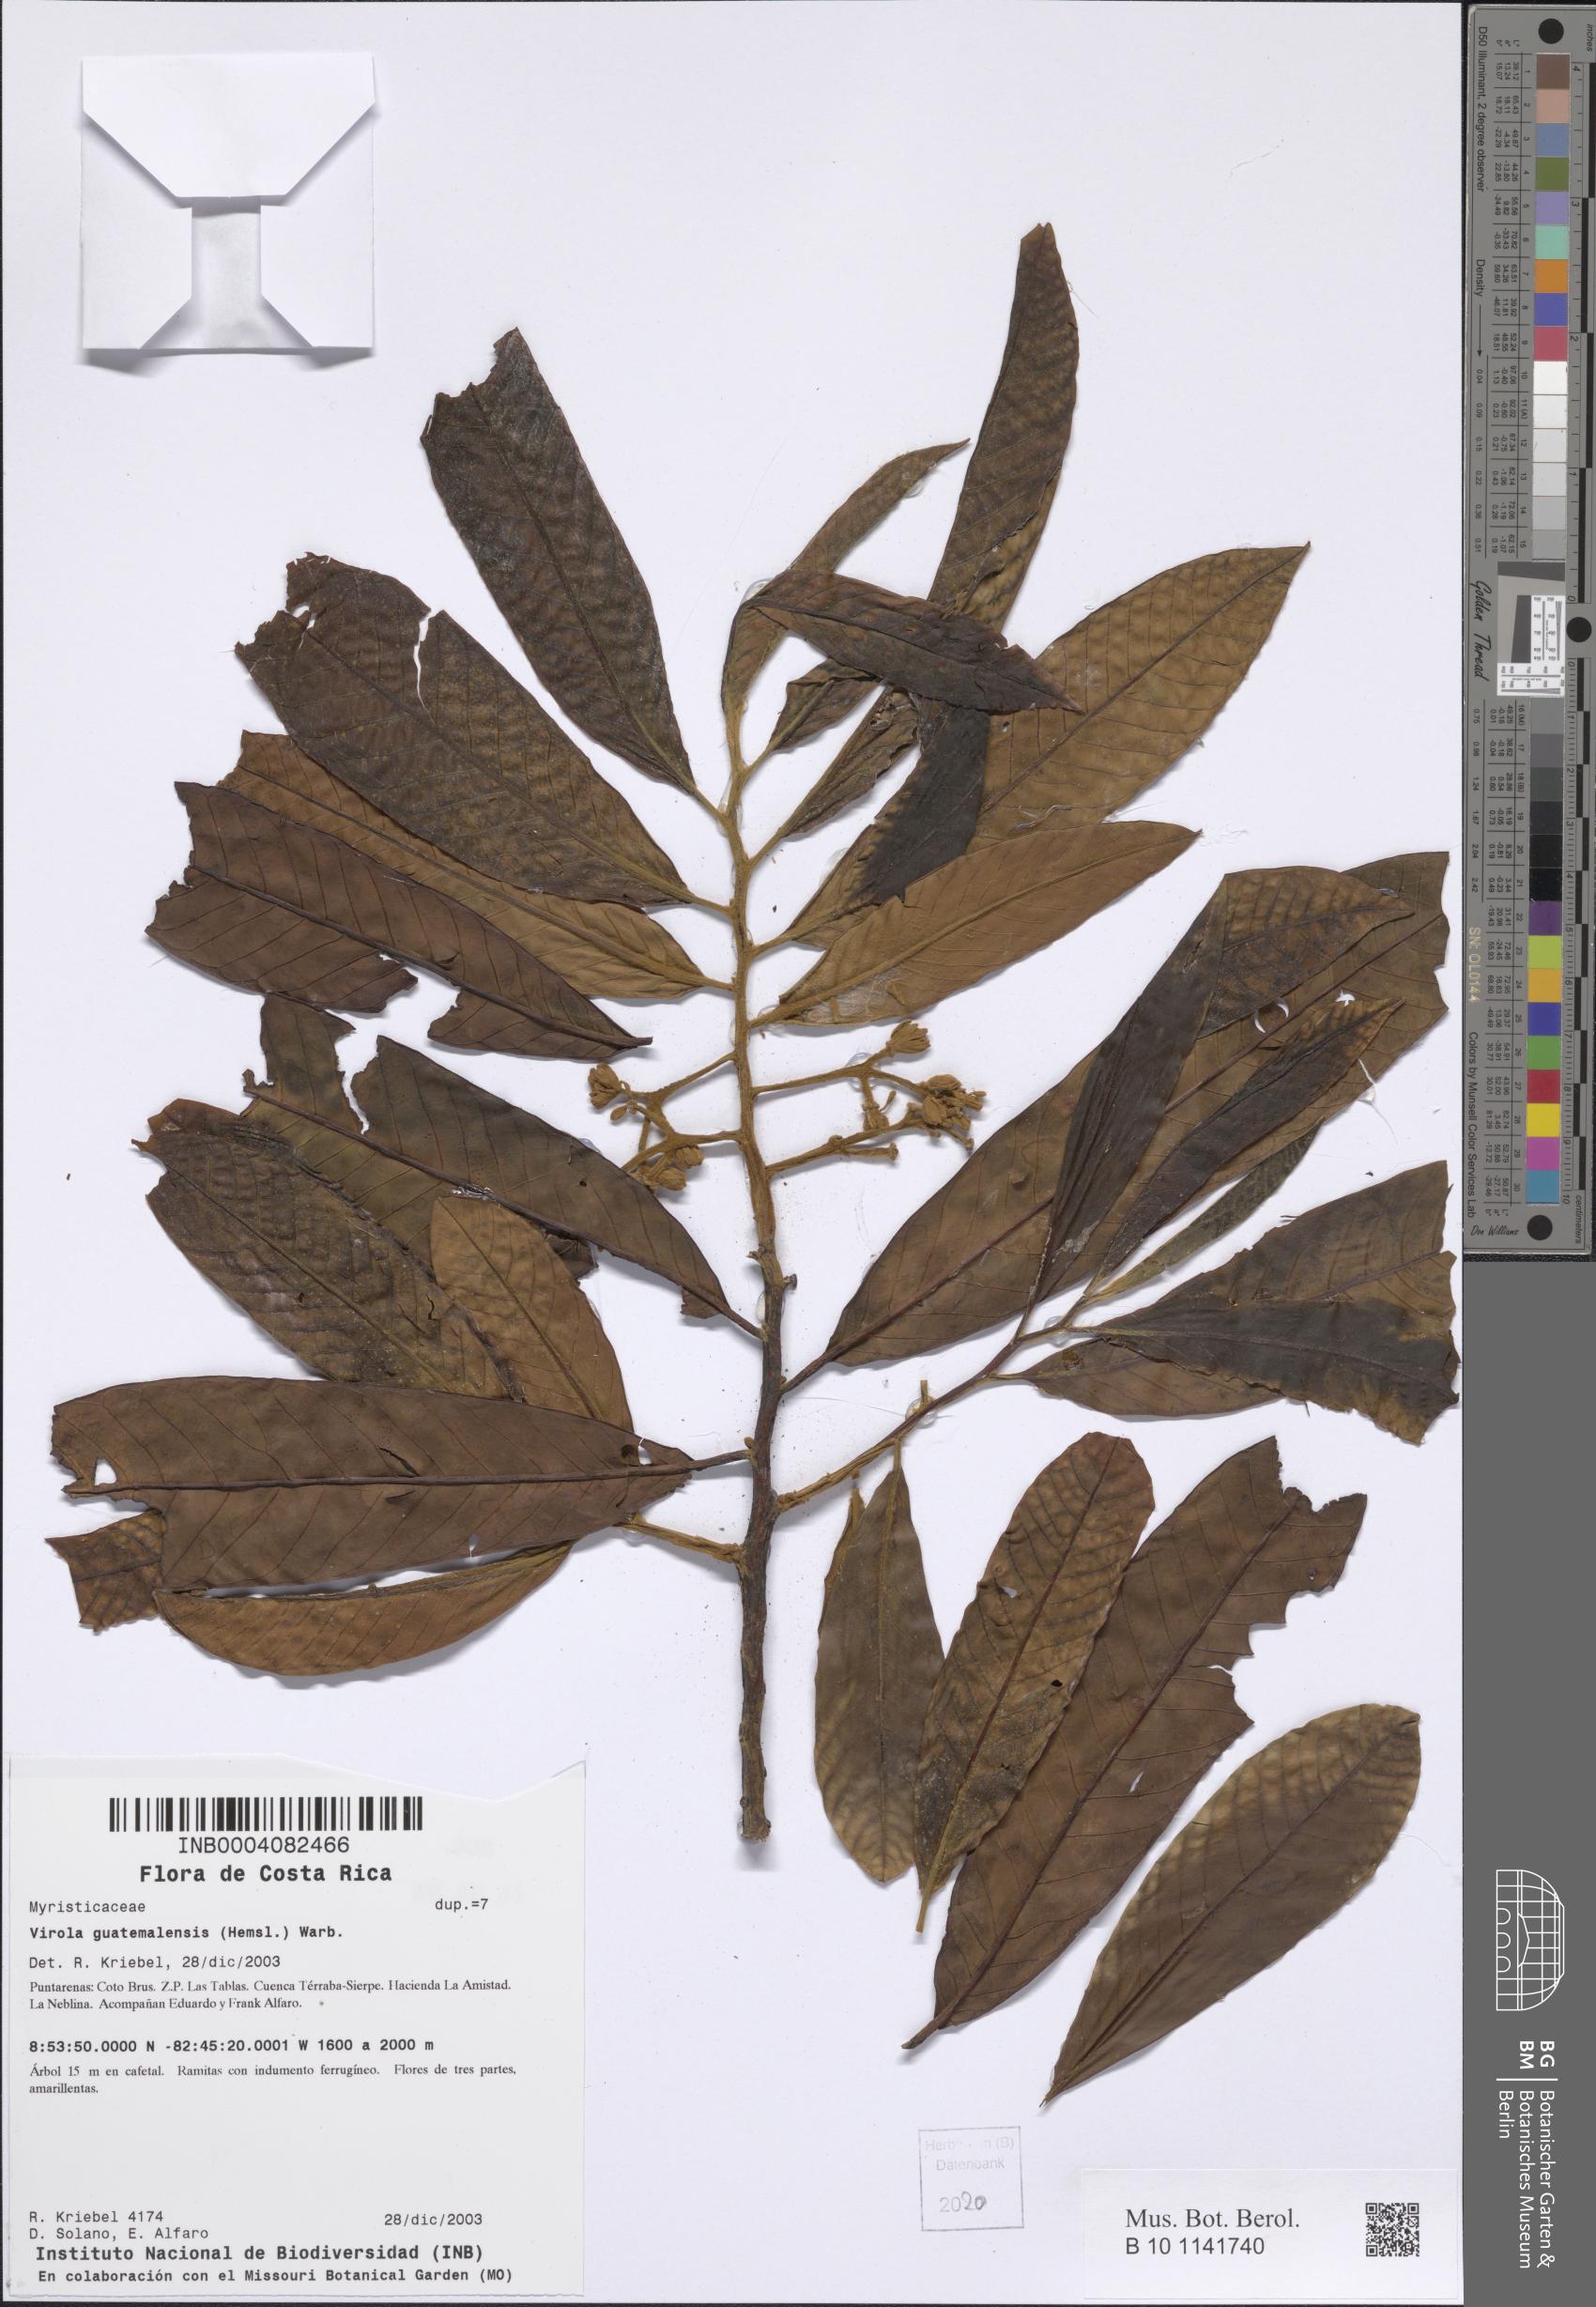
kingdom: Plantae
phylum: Tracheophyta
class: Magnoliopsida
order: Magnoliales
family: Myristicaceae
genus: Virola
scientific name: Virola montana
